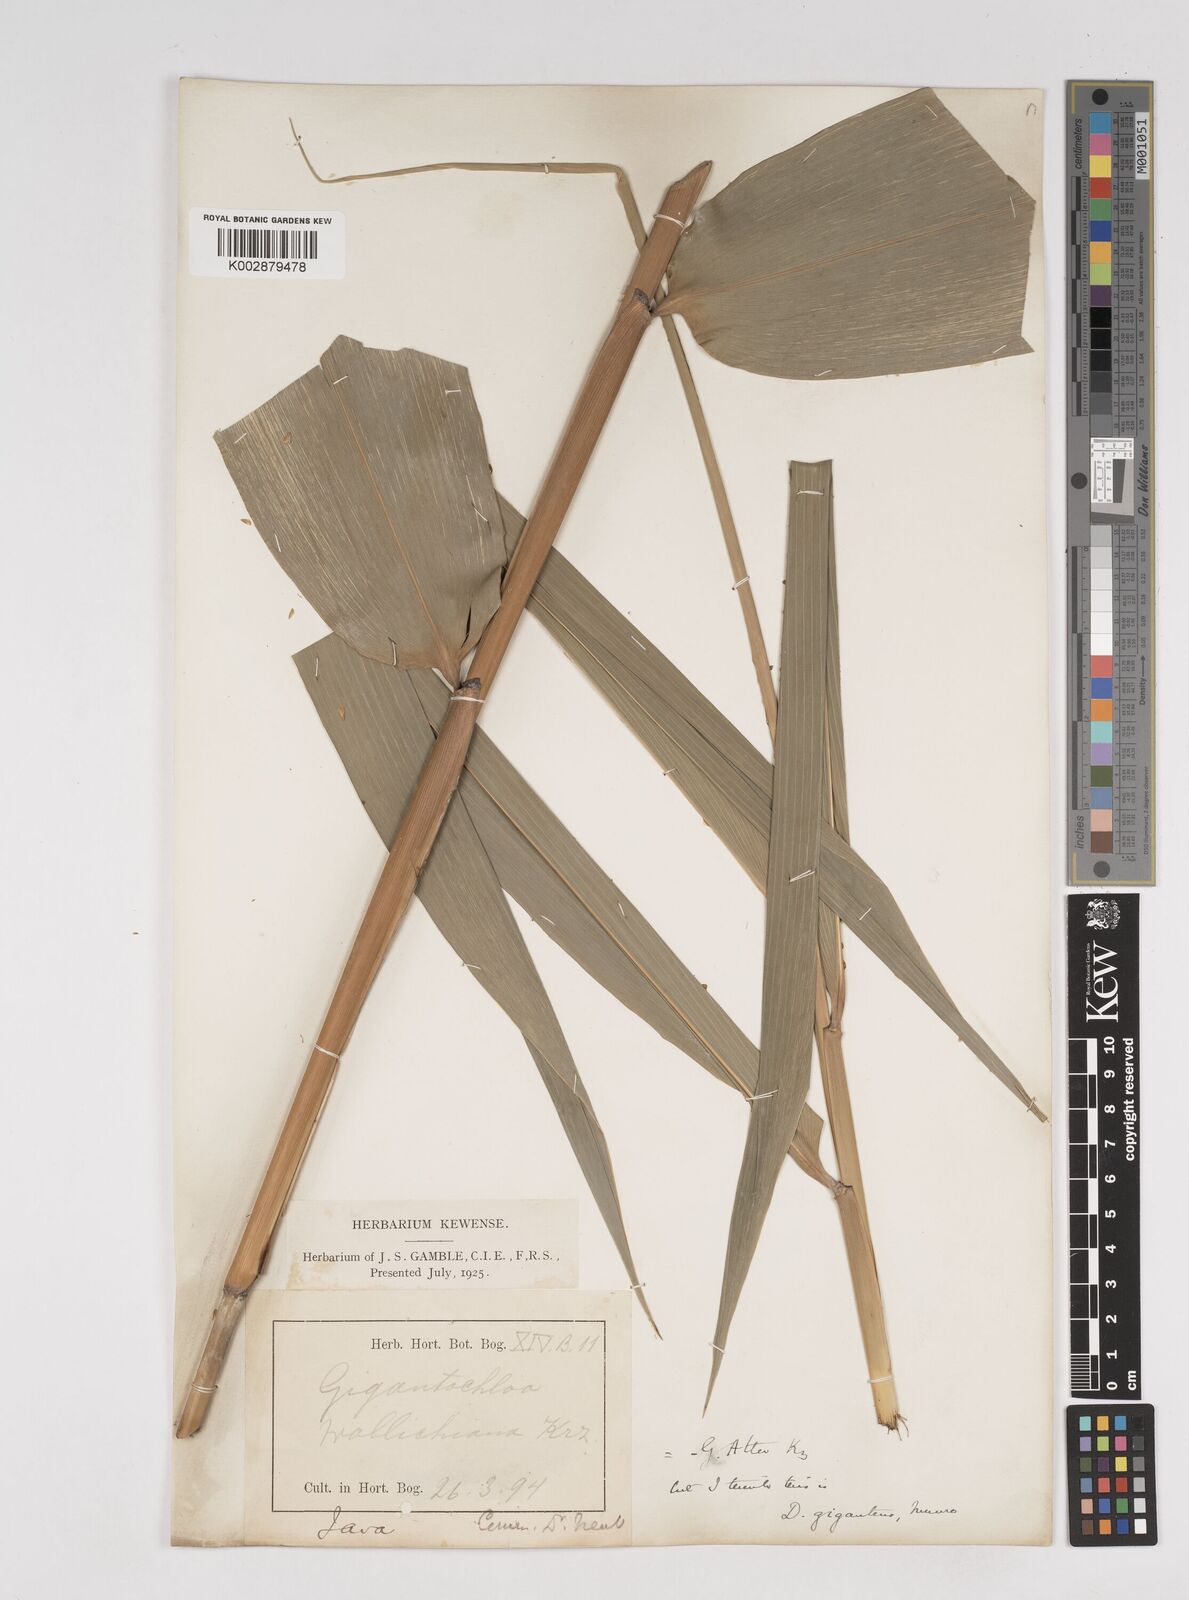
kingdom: Plantae
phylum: Tracheophyta
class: Liliopsida
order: Poales
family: Poaceae
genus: Dendrocalamus
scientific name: Dendrocalamus
